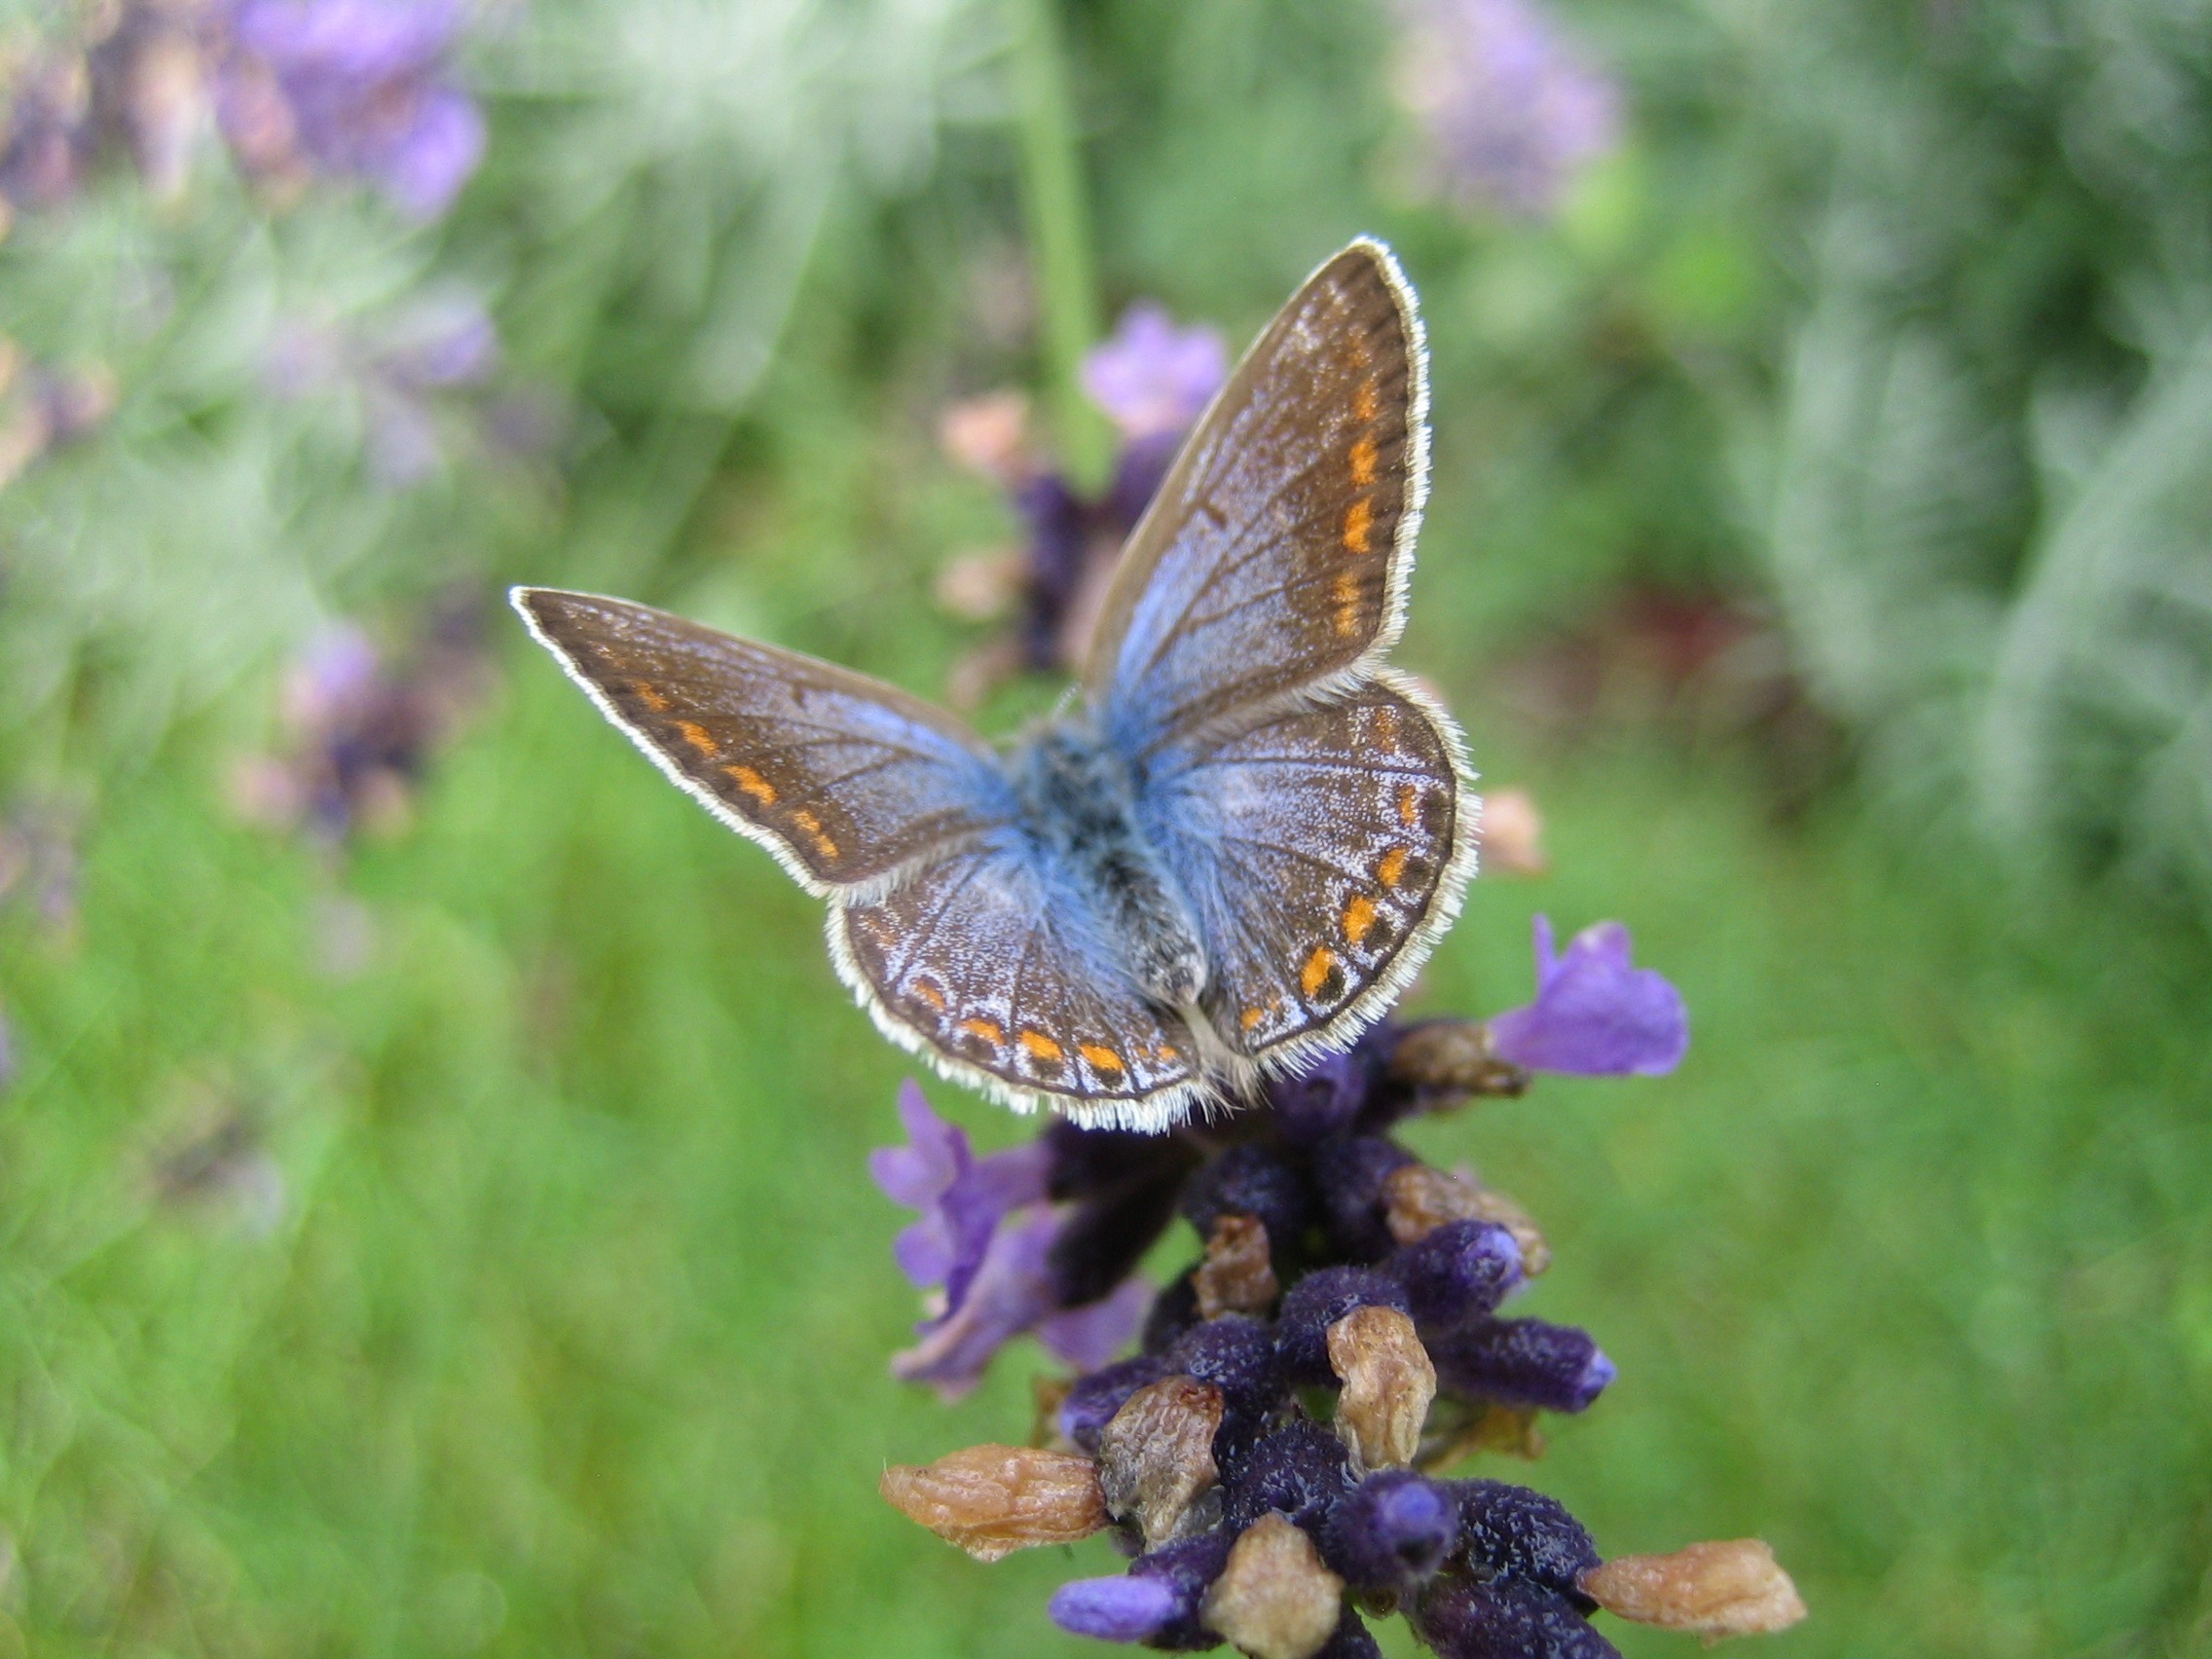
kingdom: Animalia
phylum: Arthropoda
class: Insecta
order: Lepidoptera
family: Lycaenidae
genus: Polyommatus
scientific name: Polyommatus icarus
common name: Almindelig blåfugl
